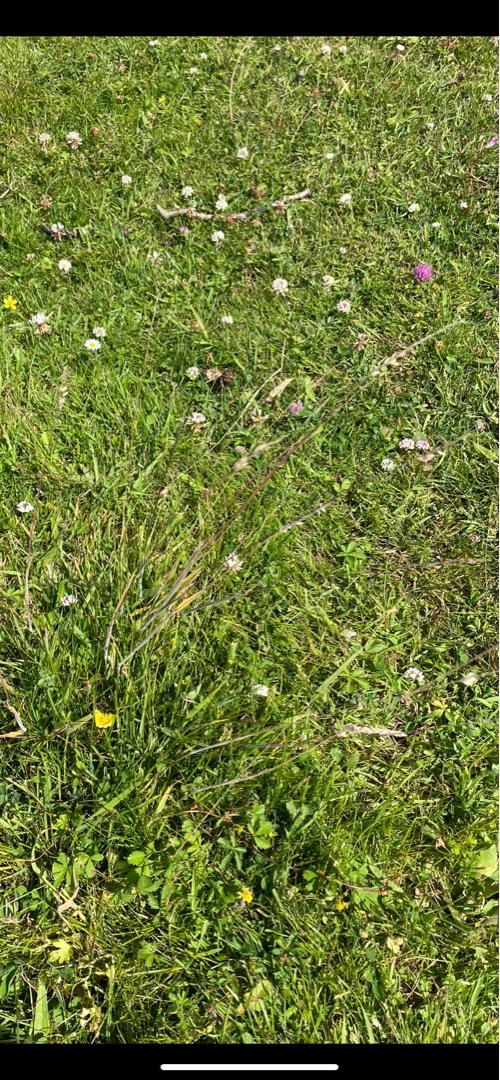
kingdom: Plantae
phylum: Tracheophyta
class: Liliopsida
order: Poales
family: Poaceae
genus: Holcus
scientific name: Holcus lanatus
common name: Fløjlsgræs
